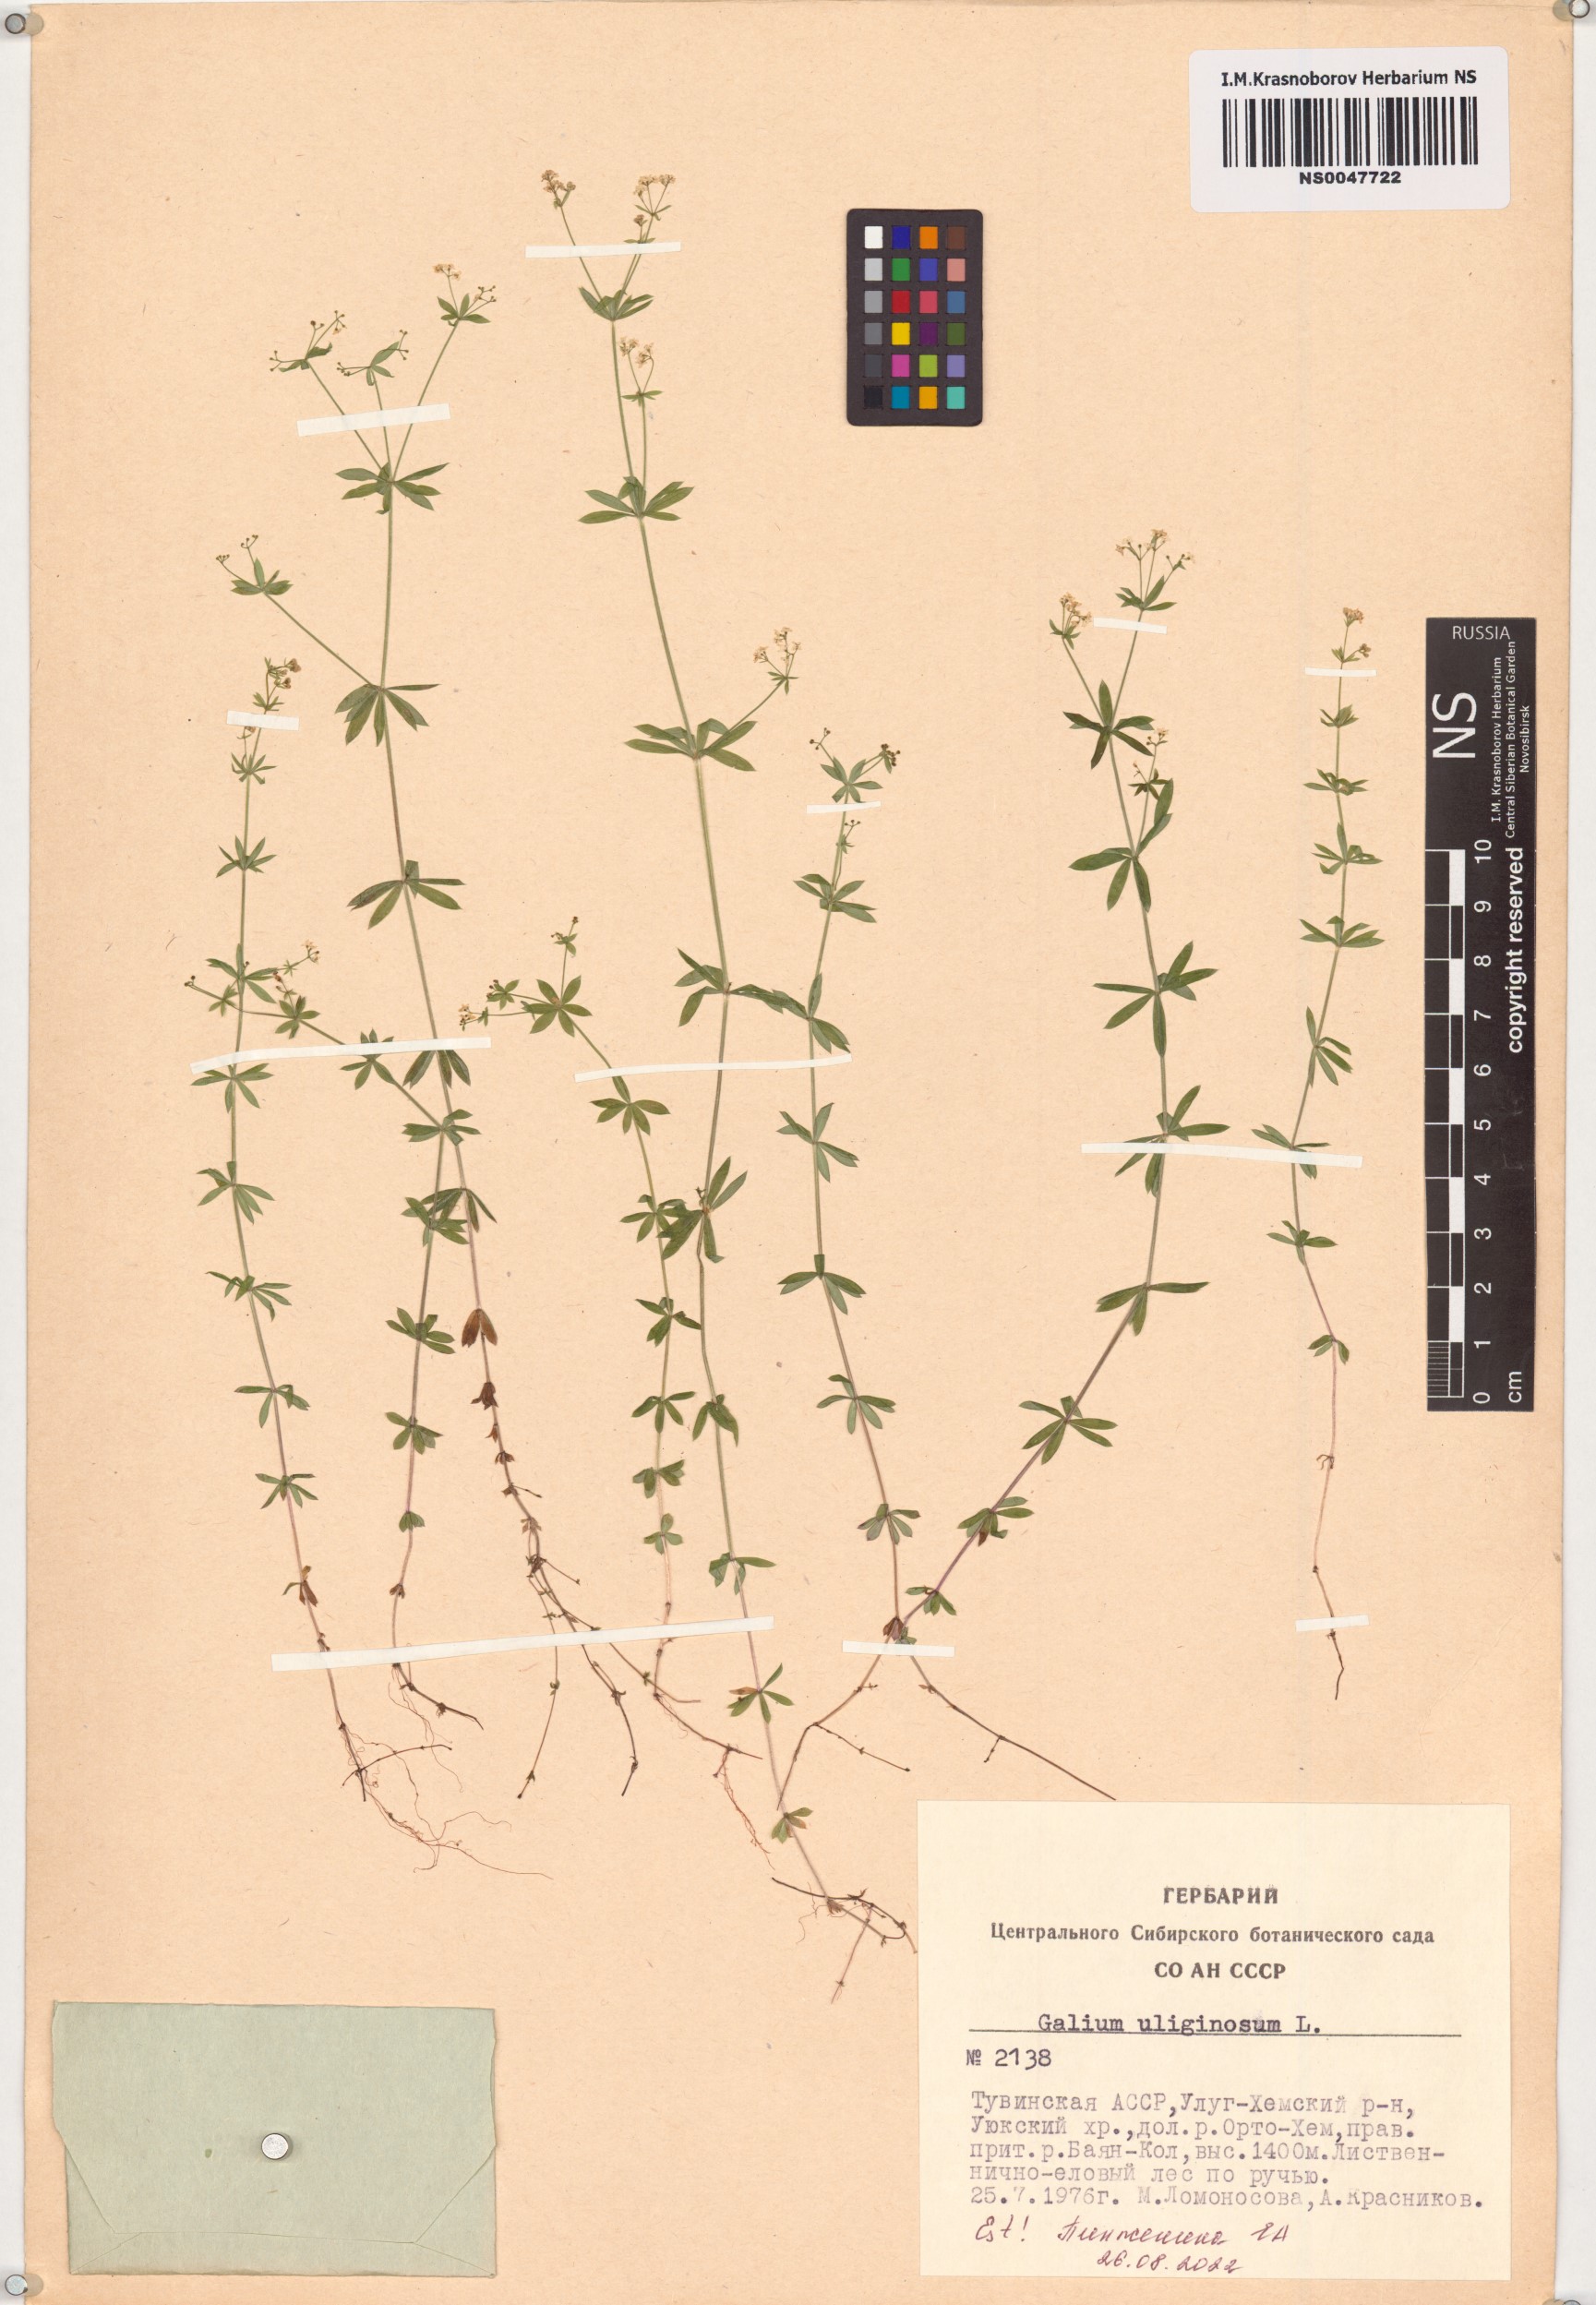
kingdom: Plantae
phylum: Tracheophyta
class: Magnoliopsida
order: Gentianales
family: Rubiaceae
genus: Galium
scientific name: Galium uliginosum
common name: Fen bedstraw
